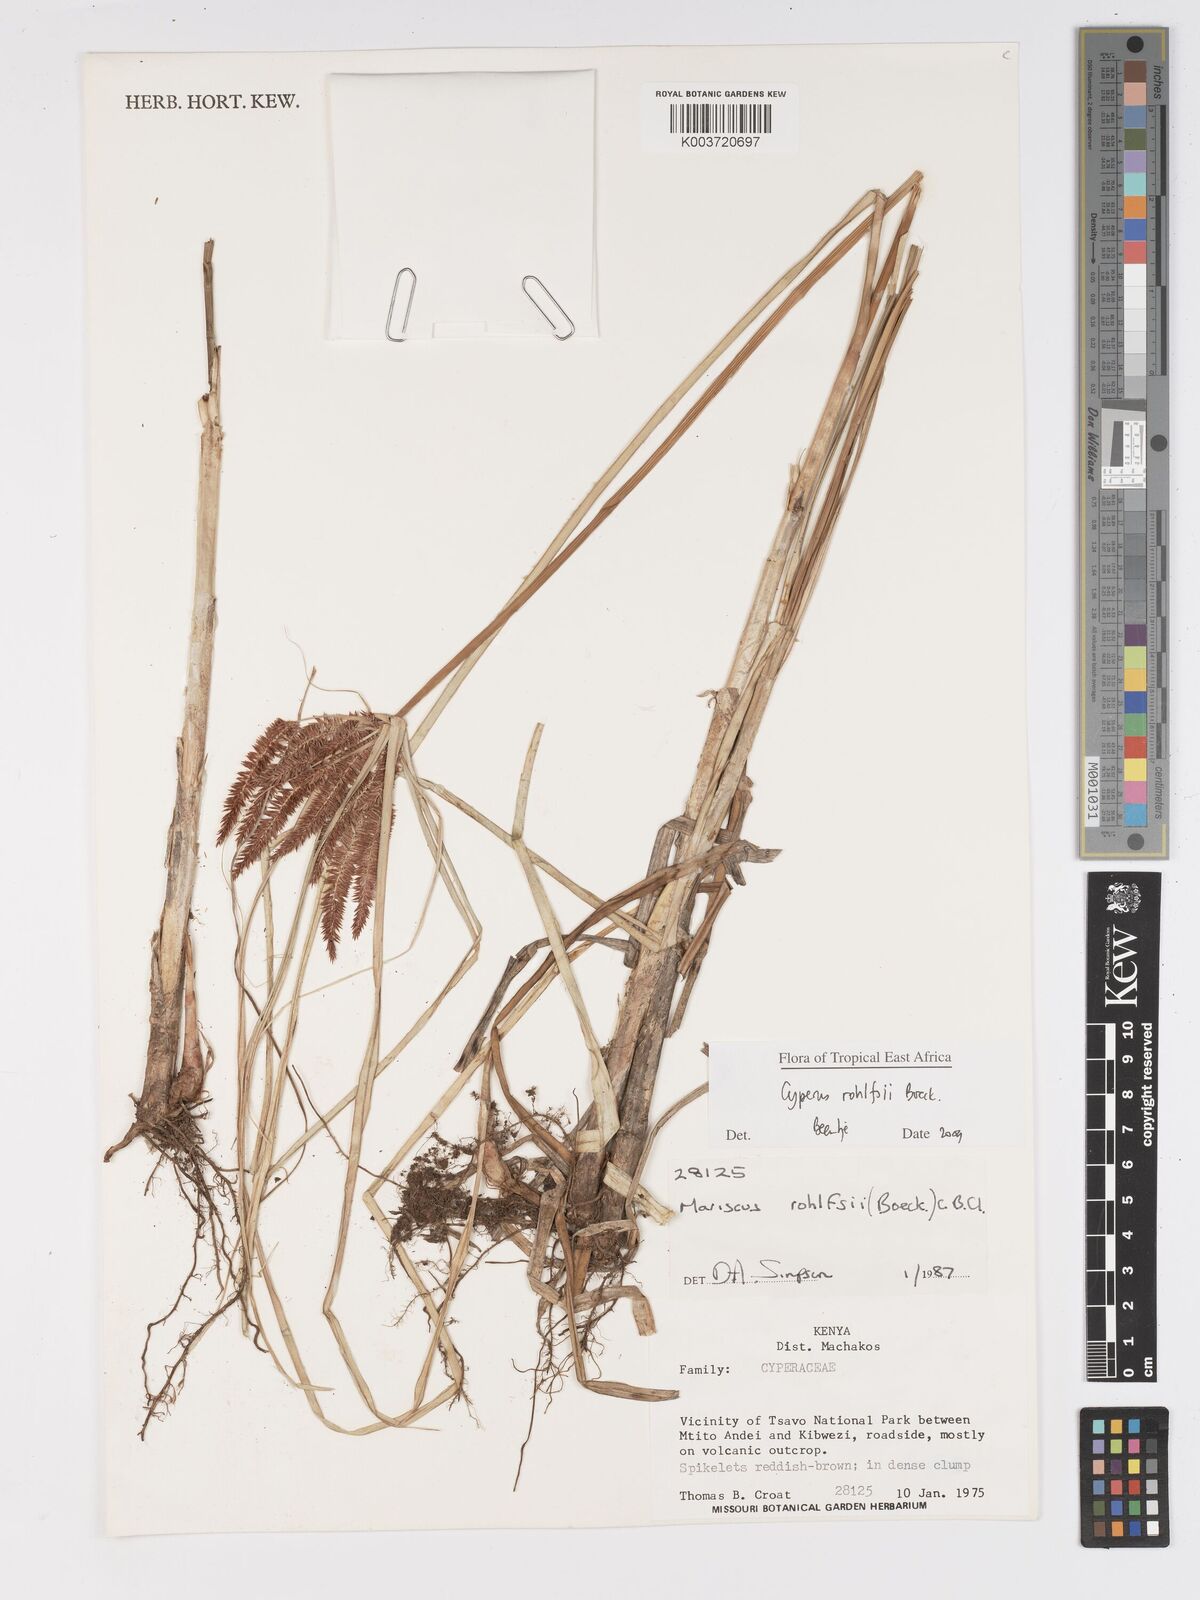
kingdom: Plantae
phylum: Tracheophyta
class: Liliopsida
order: Poales
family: Cyperaceae
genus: Cyperus
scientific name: Cyperus rohlfsii
